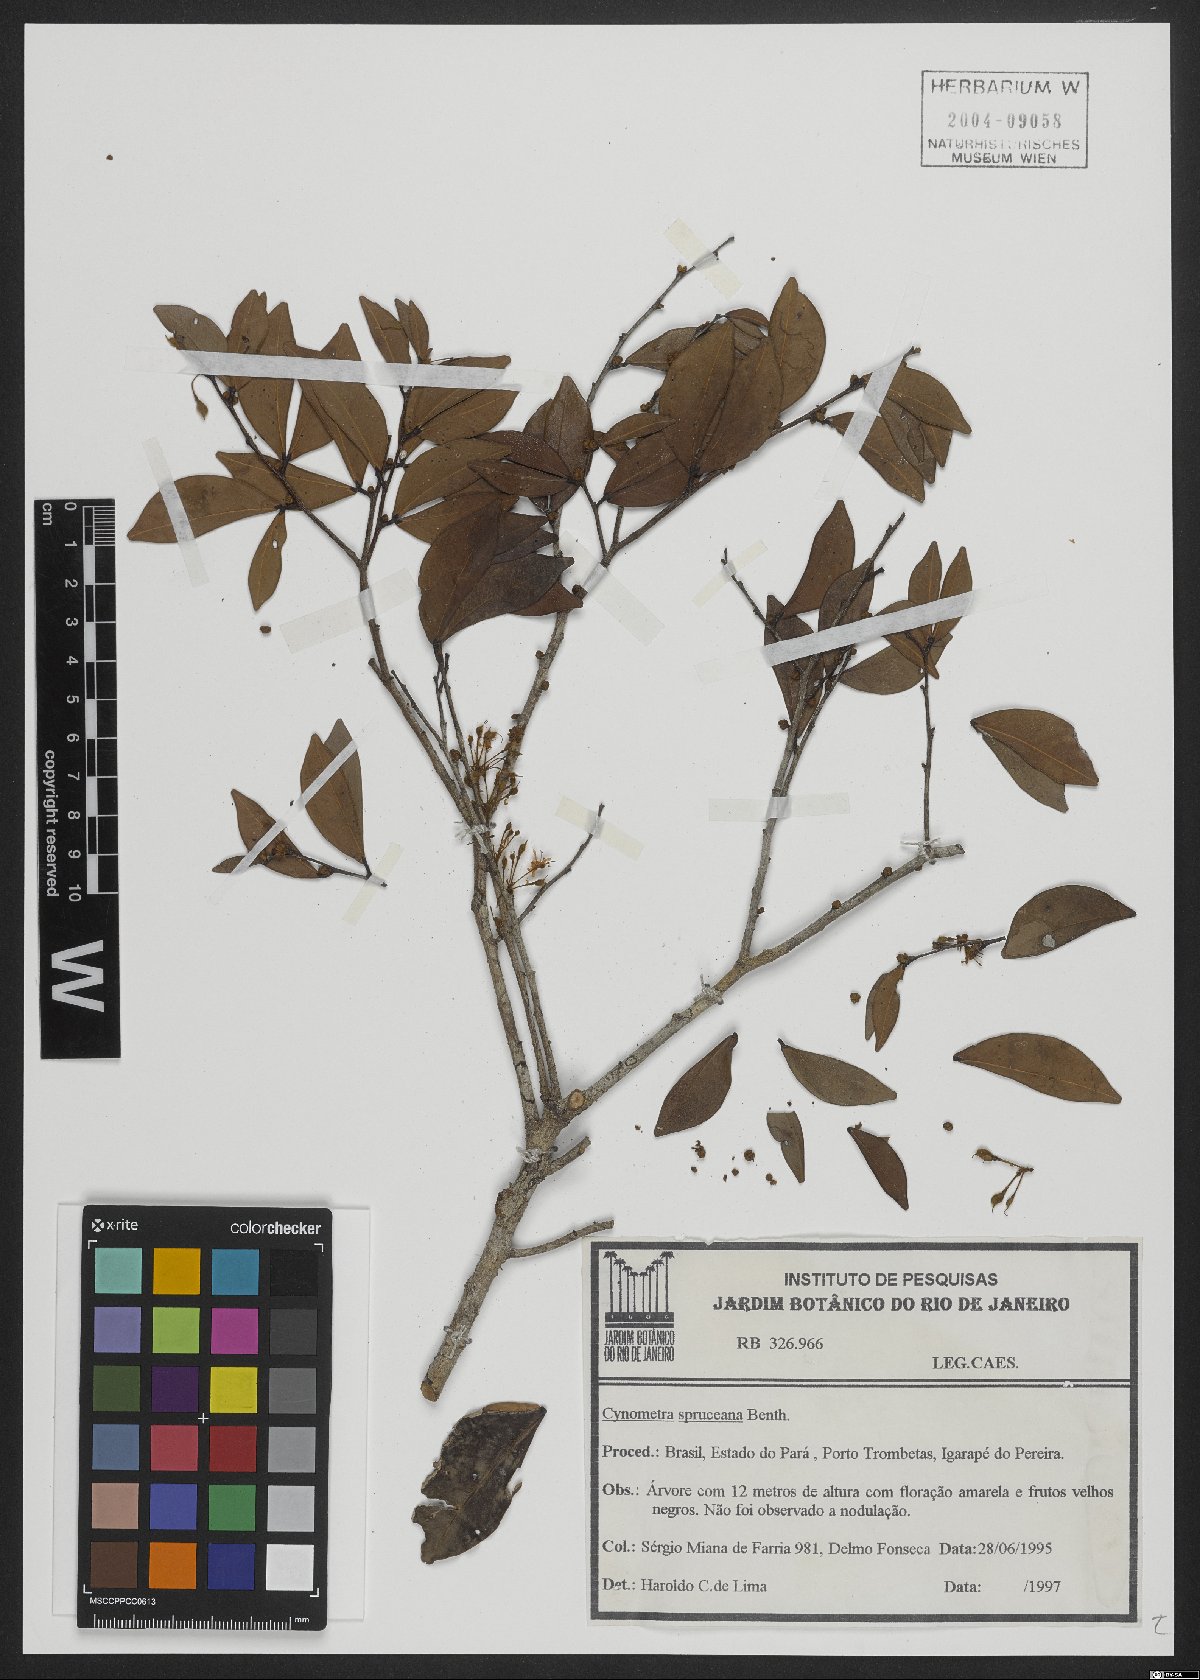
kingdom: Plantae
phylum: Tracheophyta
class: Magnoliopsida
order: Fabales
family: Fabaceae
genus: Cynometra
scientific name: Cynometra phaselocarpa
